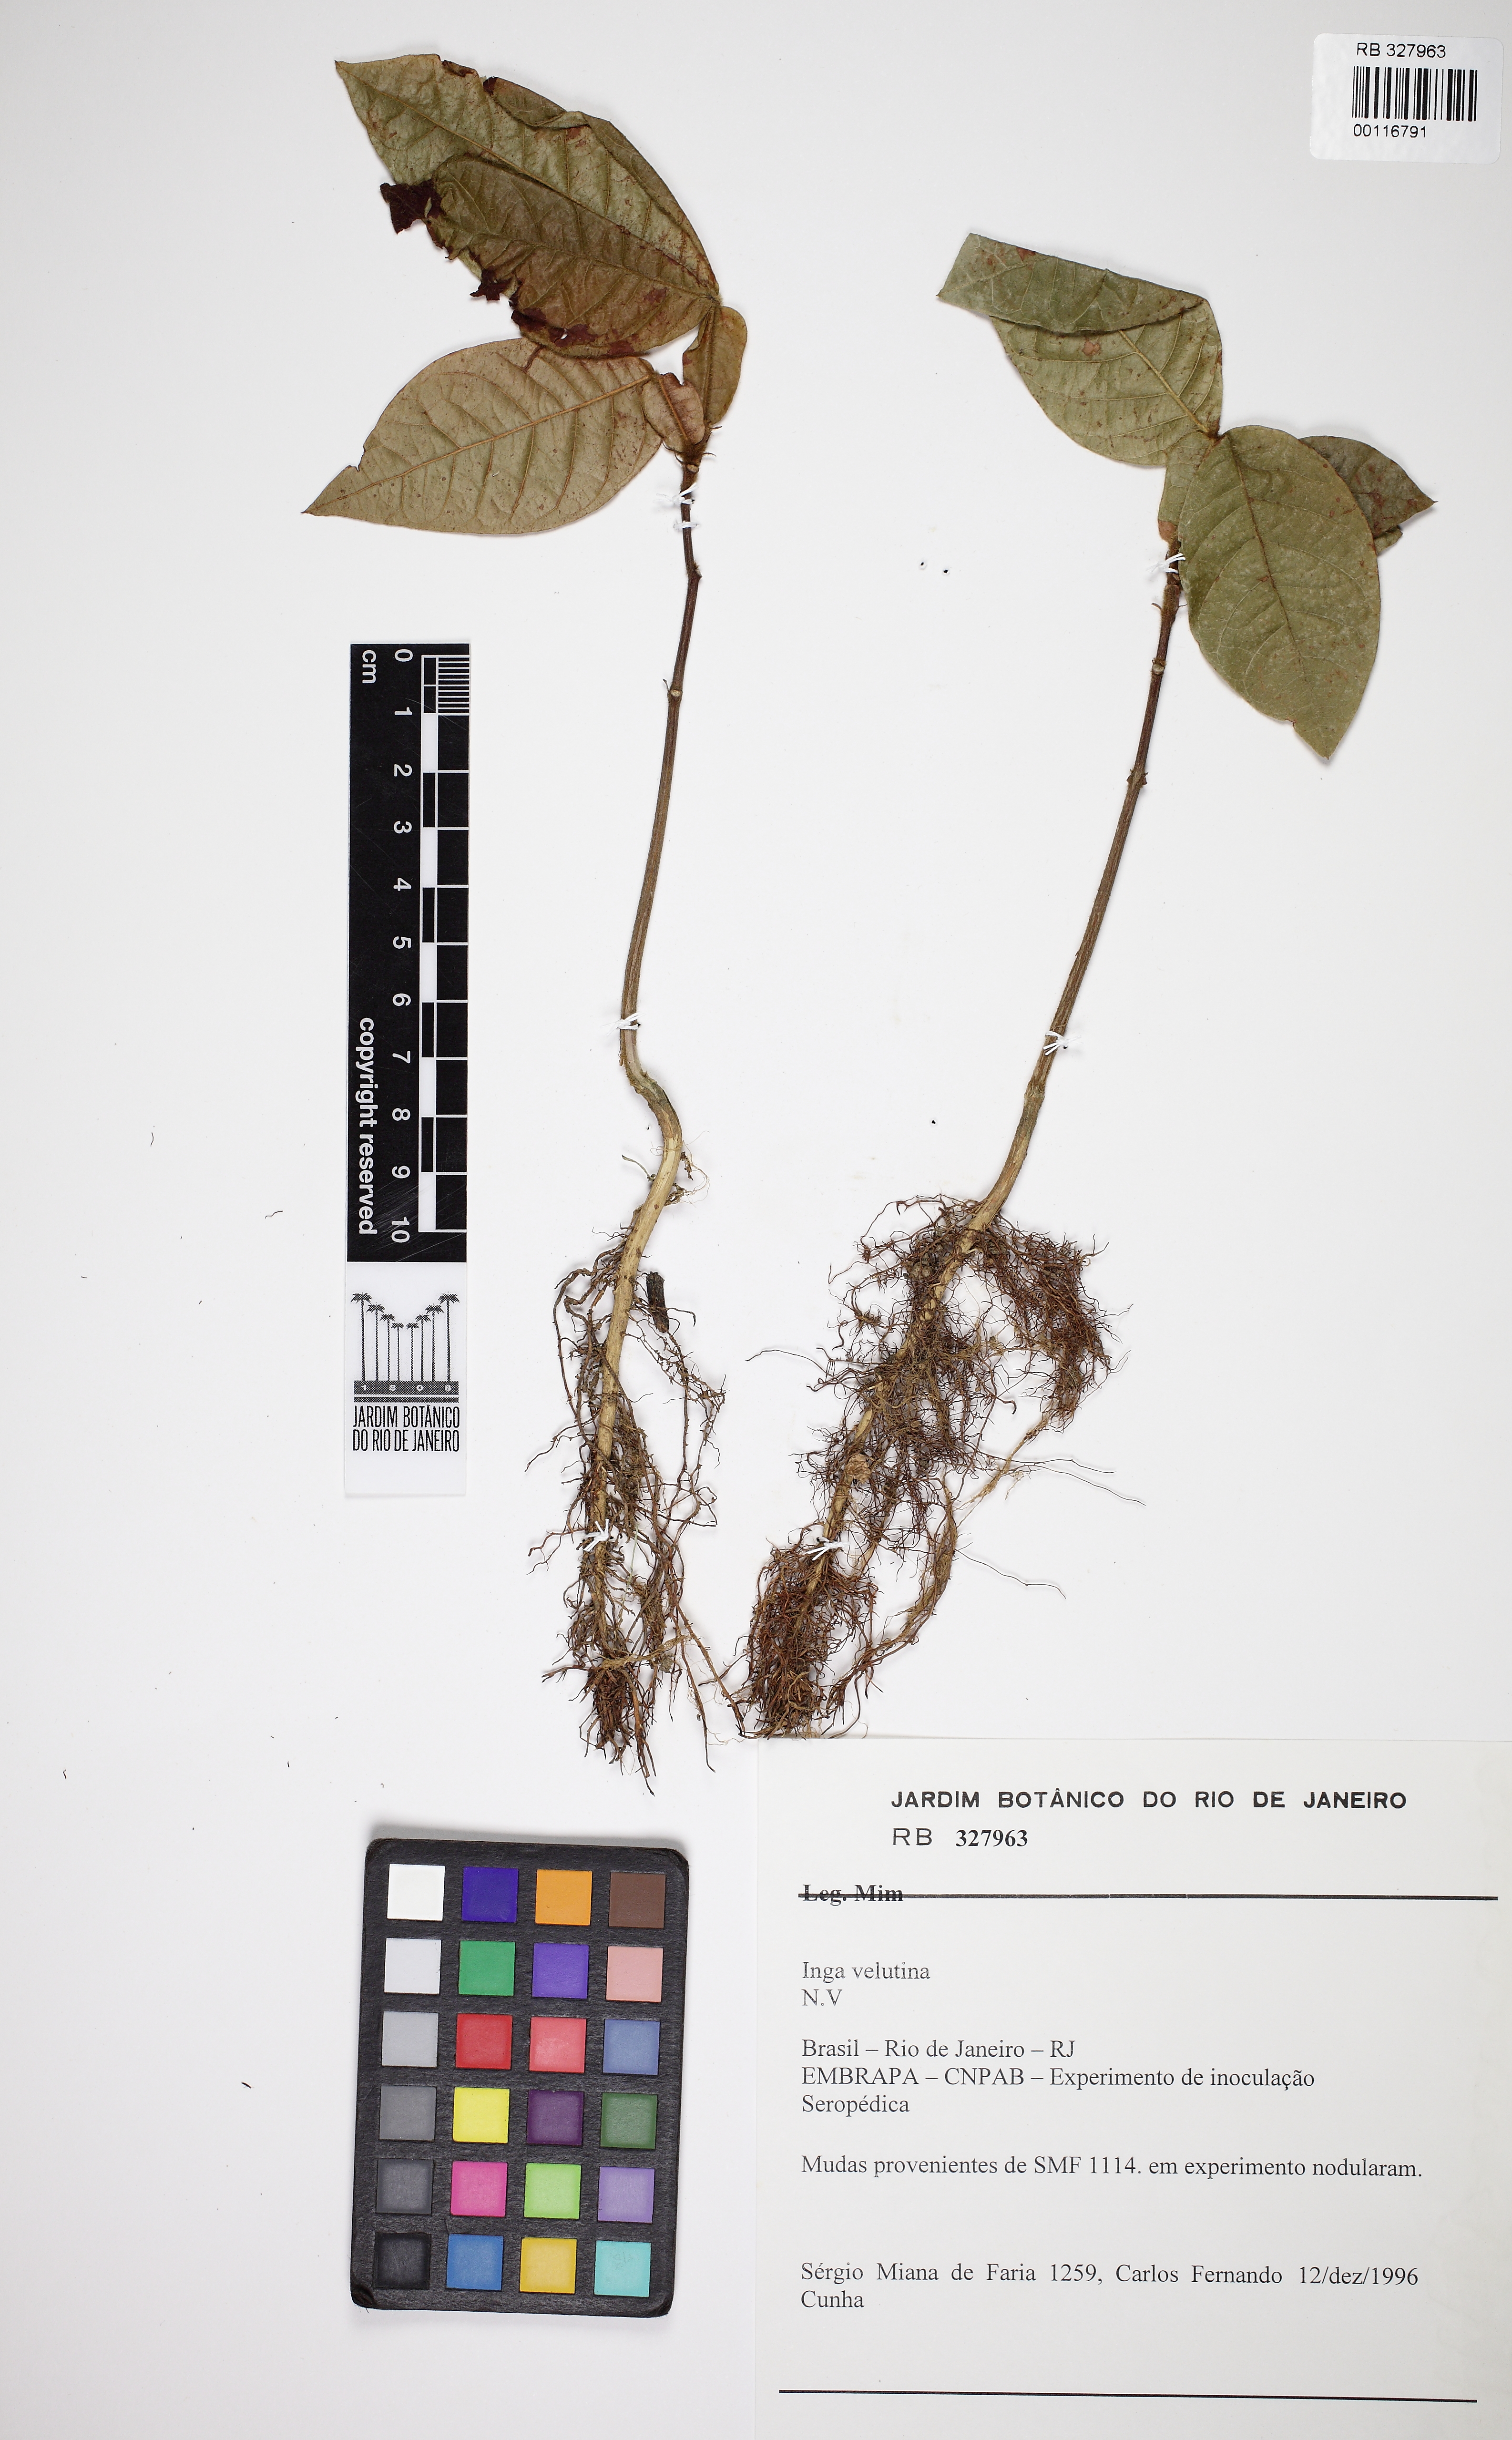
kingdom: Plantae
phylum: Tracheophyta
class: Magnoliopsida
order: Fabales
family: Fabaceae
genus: Inga
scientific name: Inga velutina
